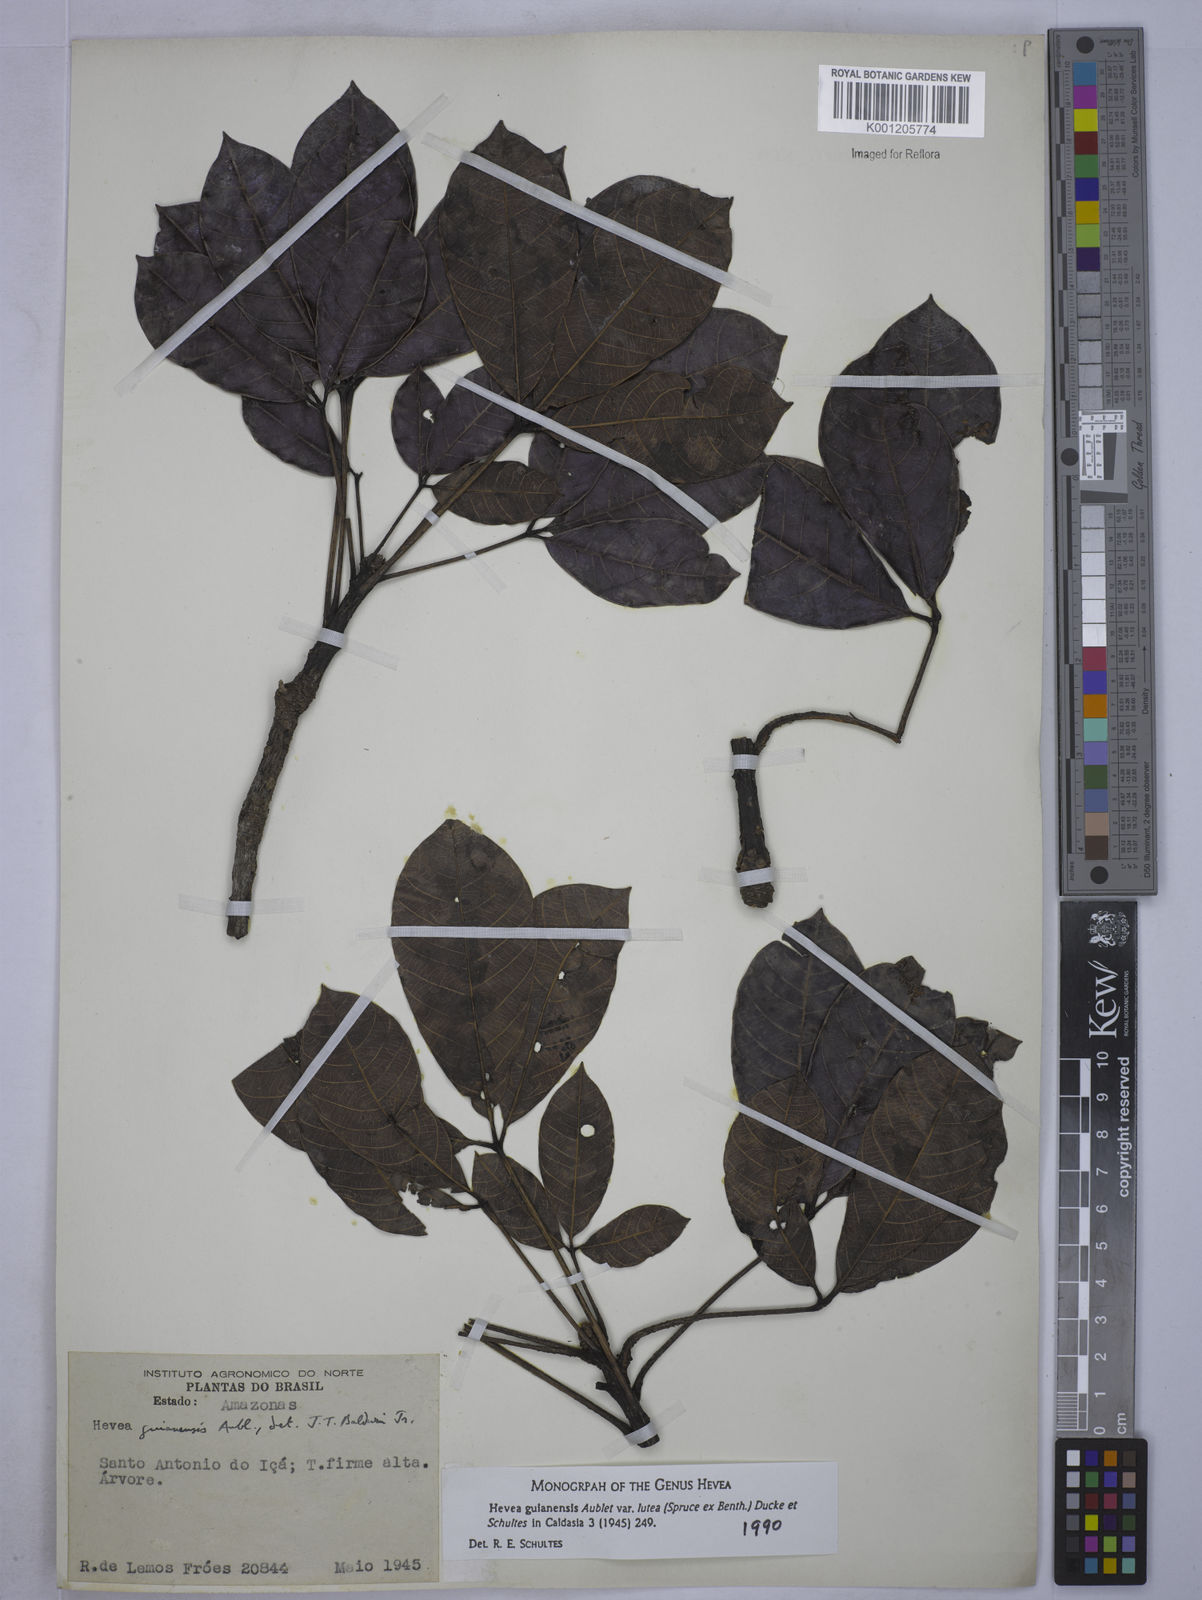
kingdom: Plantae
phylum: Tracheophyta
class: Magnoliopsida
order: Malpighiales
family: Euphorbiaceae
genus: Hevea
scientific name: Hevea guianensis
